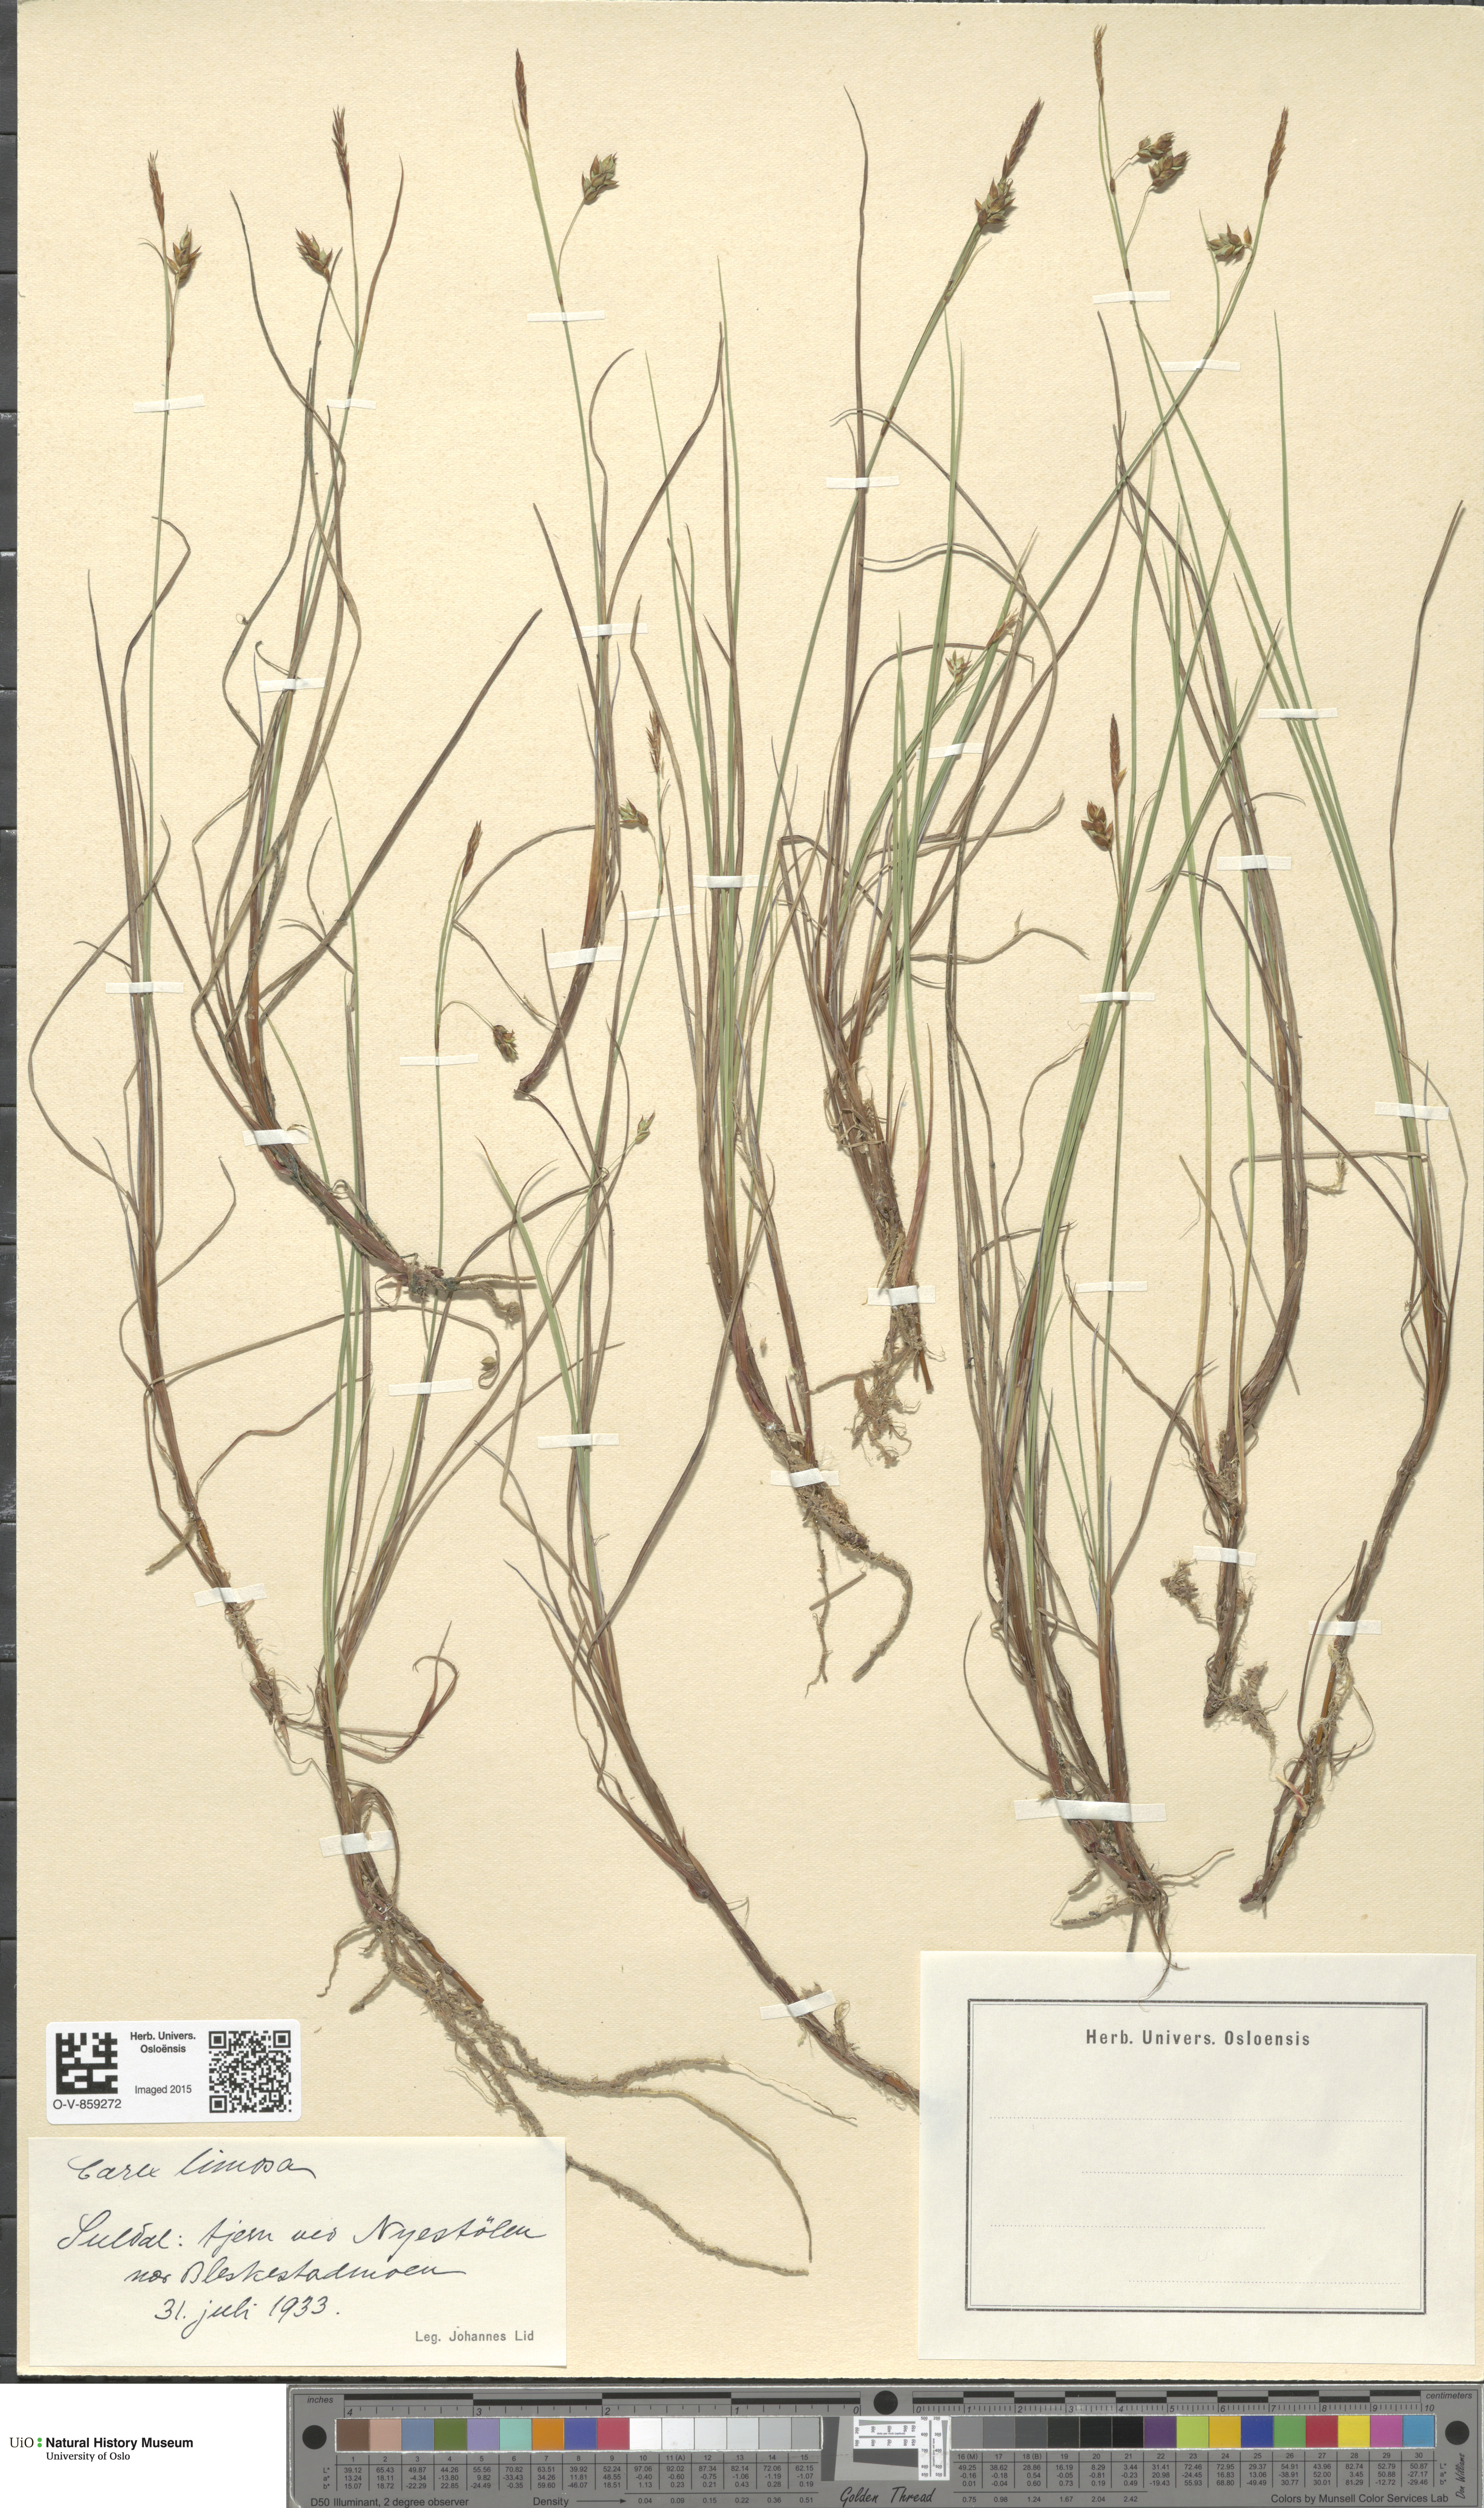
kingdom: Plantae
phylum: Tracheophyta
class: Liliopsida
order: Poales
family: Cyperaceae
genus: Carex
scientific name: Carex limosa
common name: Bog sedge
